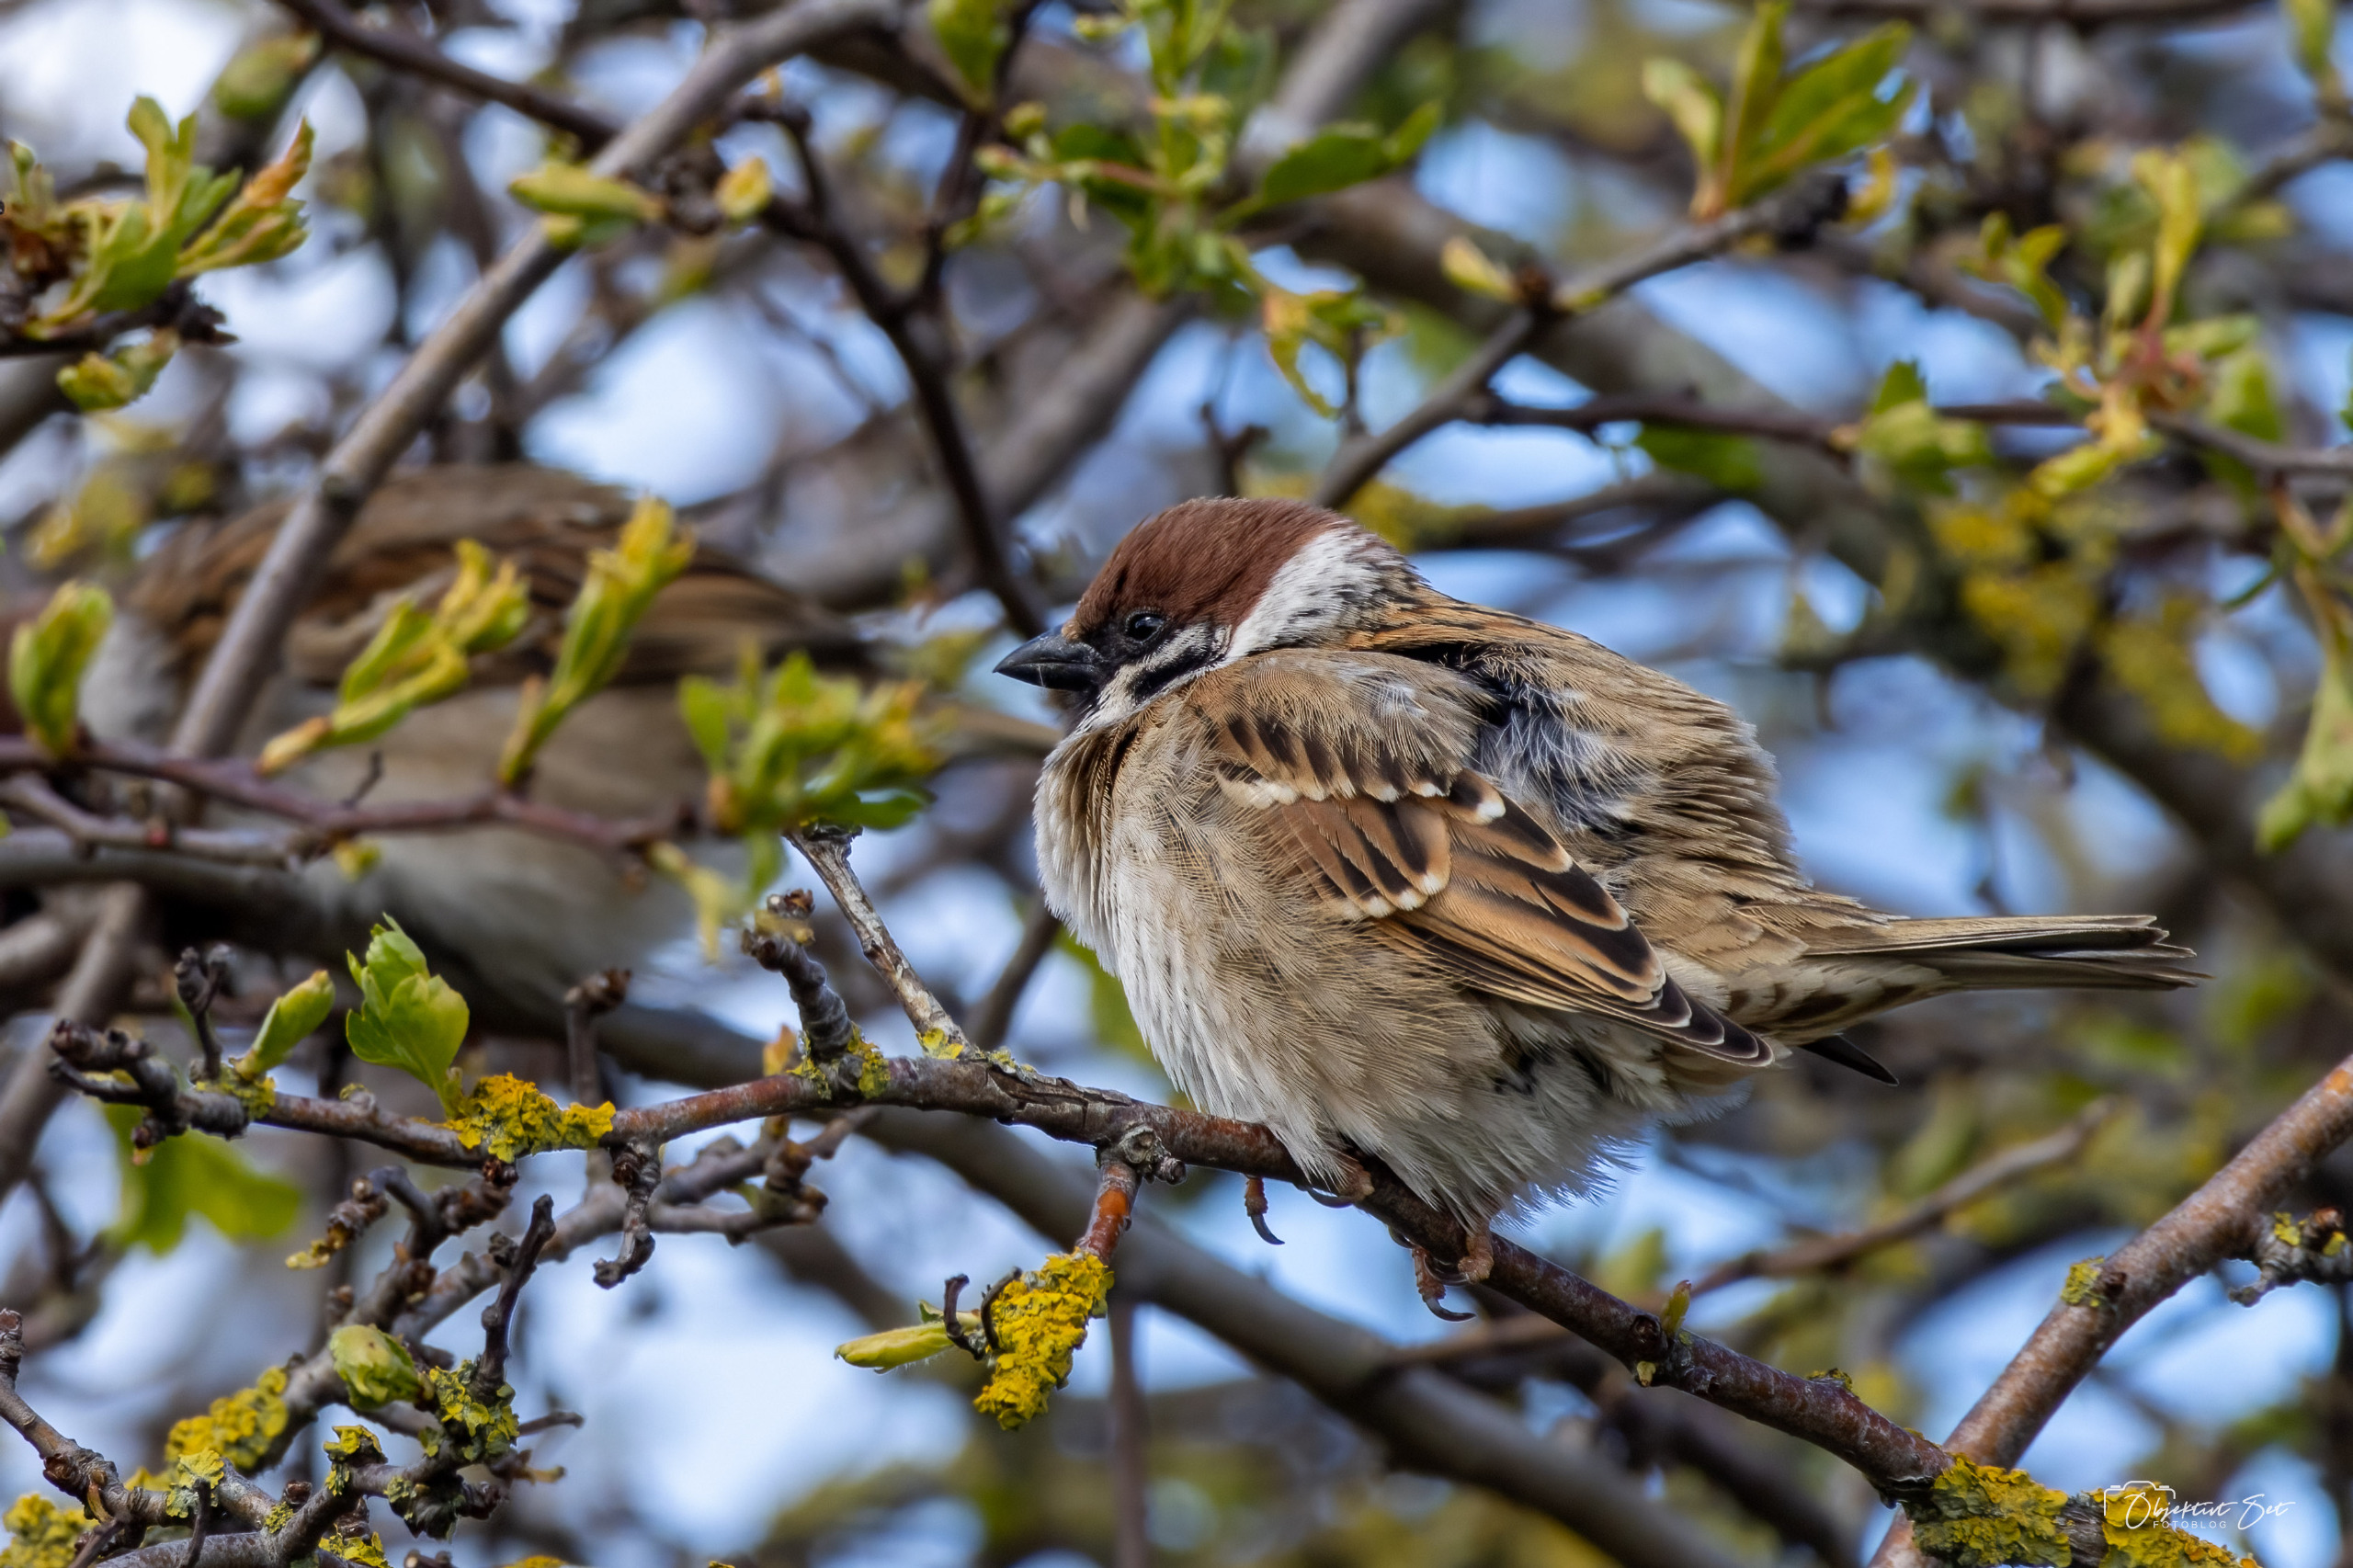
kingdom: Animalia
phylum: Chordata
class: Aves
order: Passeriformes
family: Passeridae
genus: Passer
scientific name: Passer montanus
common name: Skovspurv
